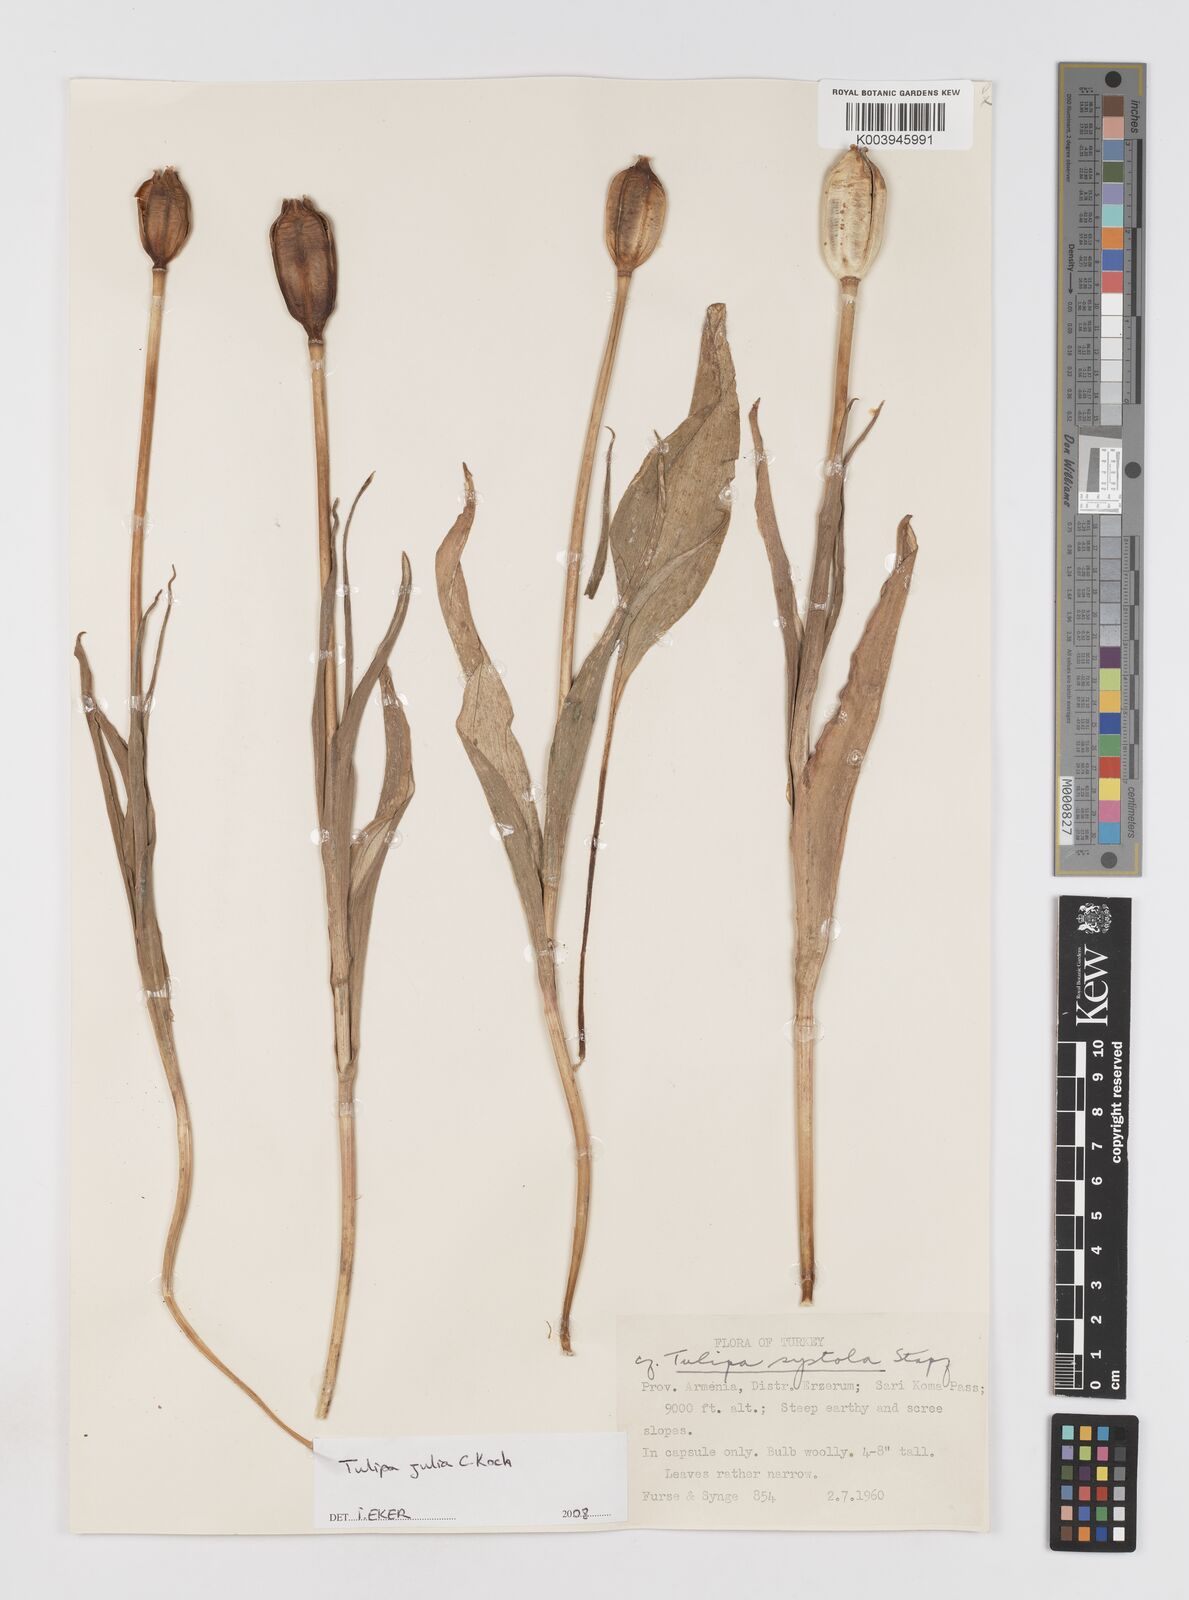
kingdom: Plantae
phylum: Tracheophyta
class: Liliopsida
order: Liliales
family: Liliaceae
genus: Tulipa
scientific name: Tulipa julia
